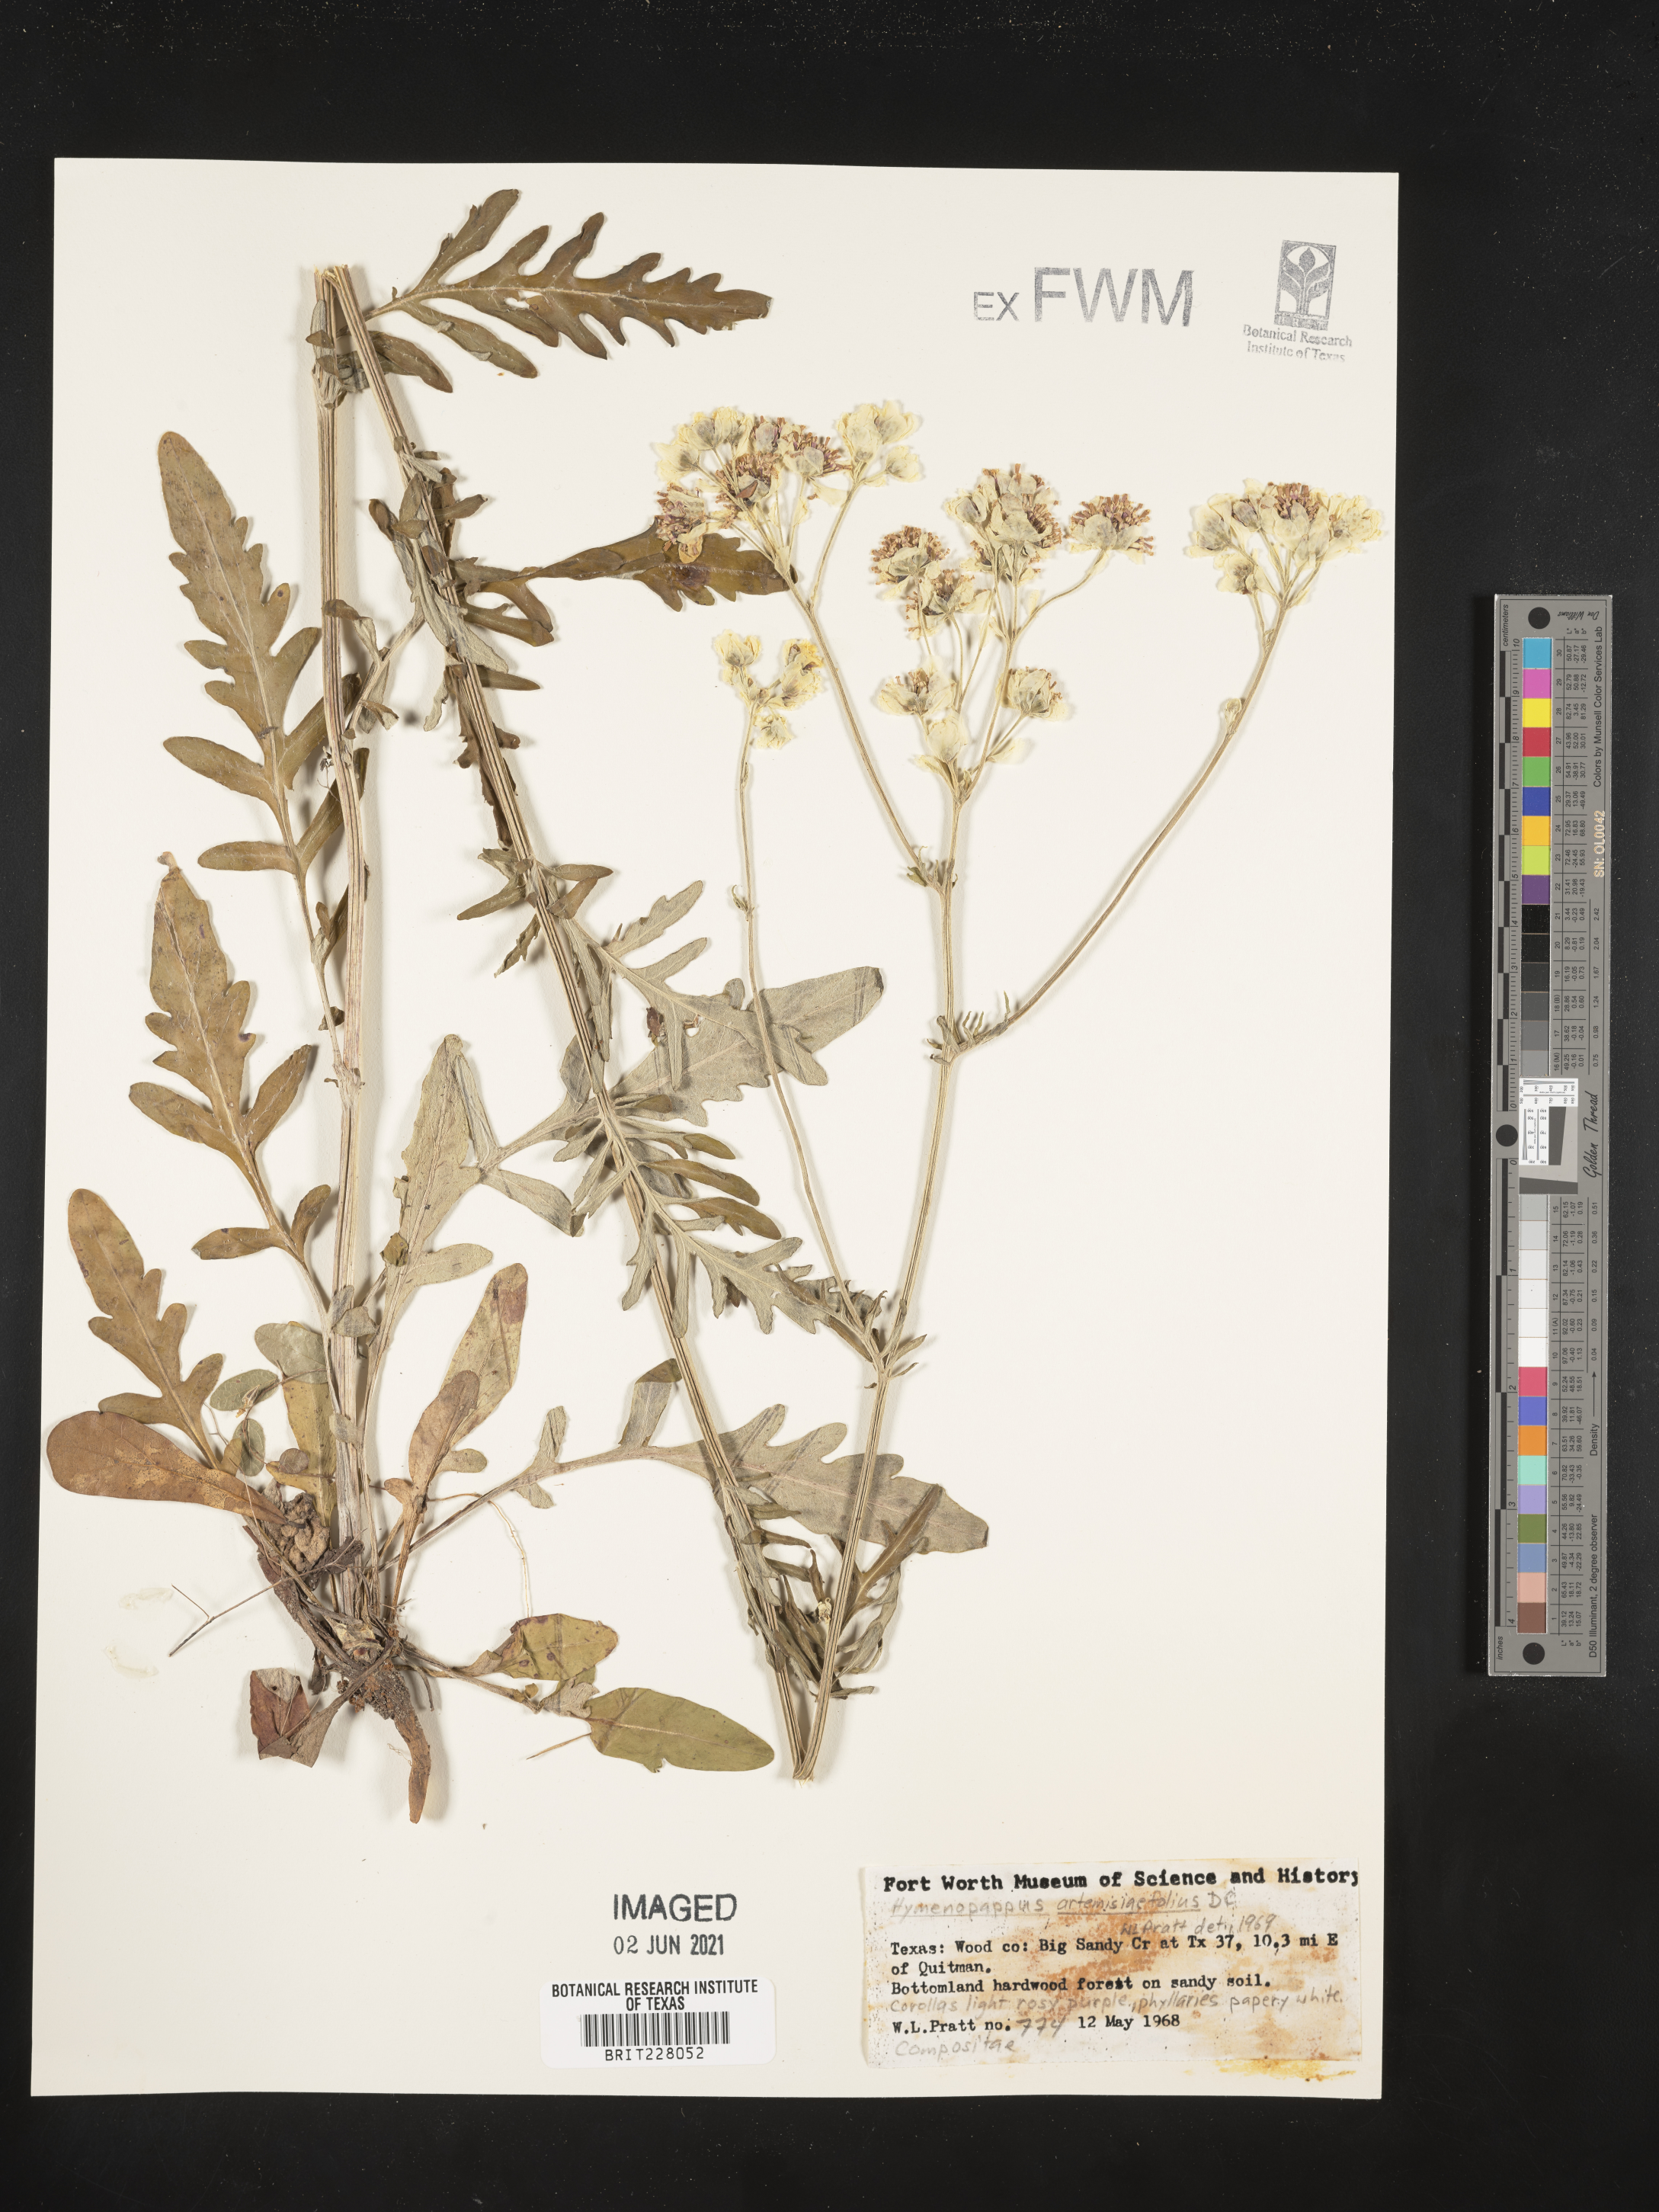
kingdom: Plantae
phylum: Tracheophyta
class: Magnoliopsida
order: Asterales
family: Asteraceae
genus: Hymenopappus
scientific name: Hymenopappus artemisiifolius
